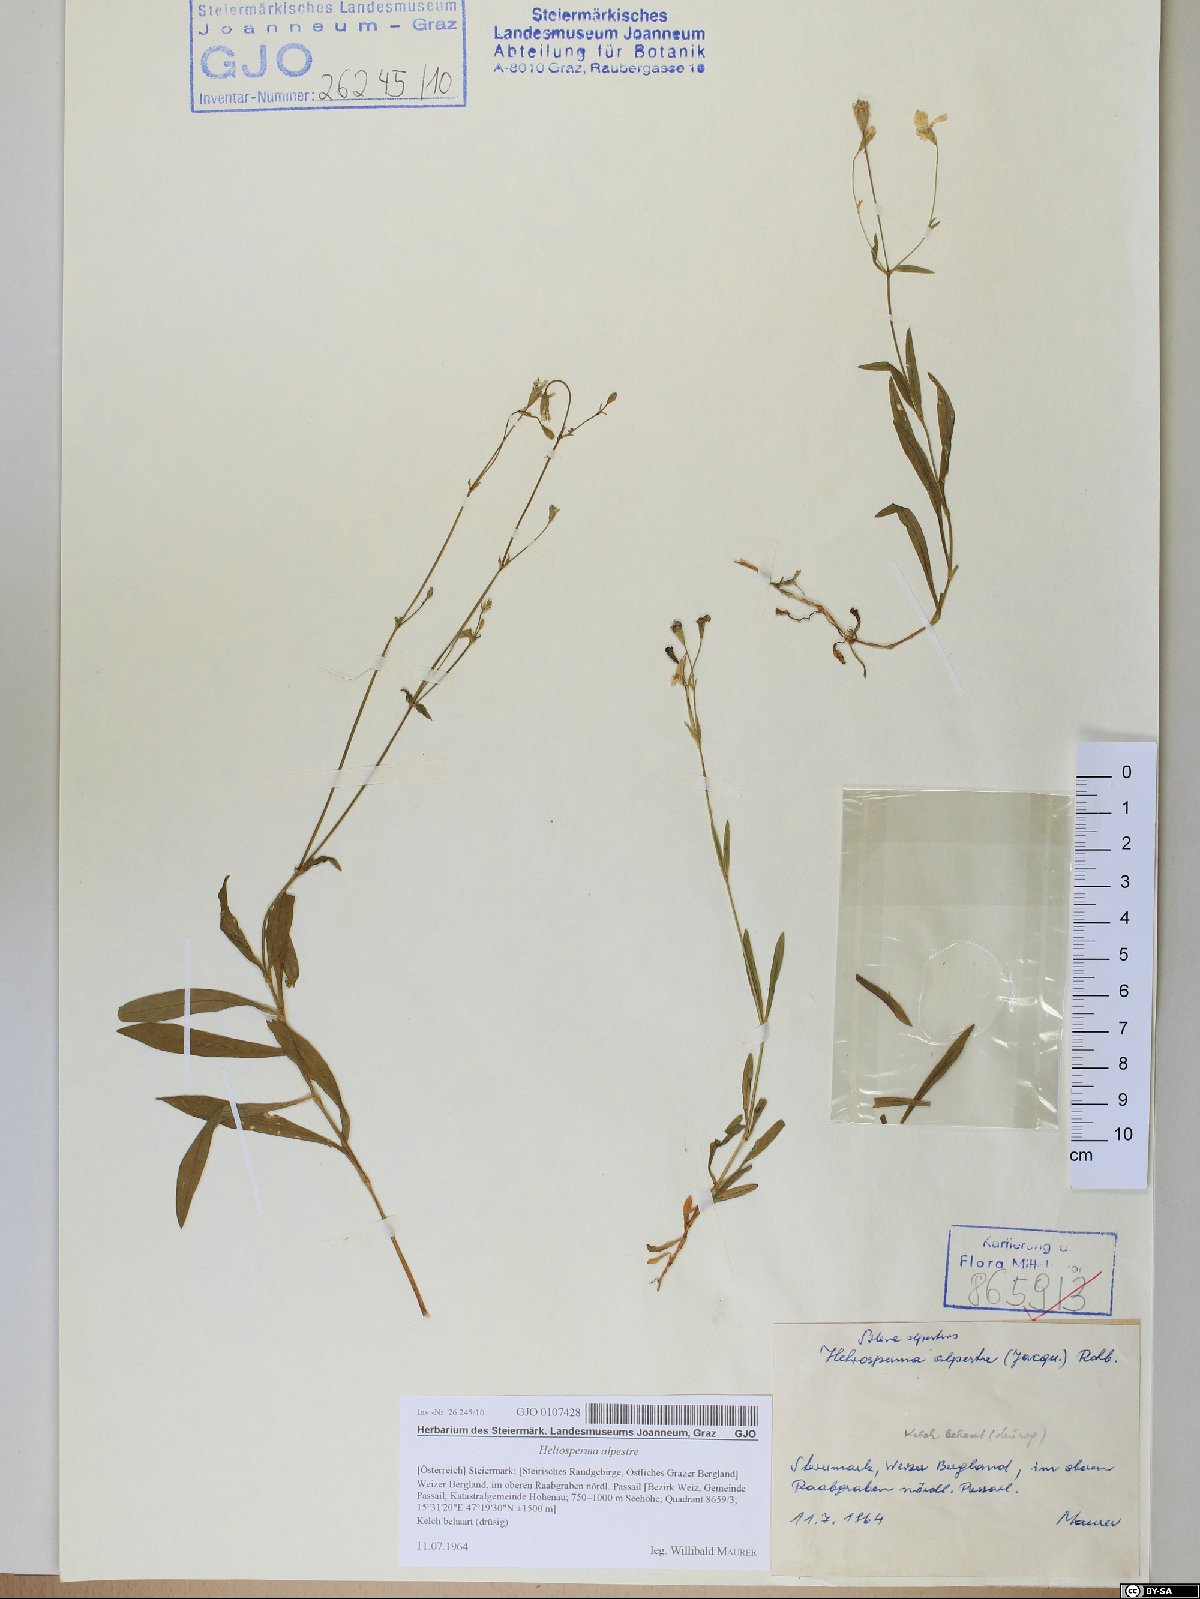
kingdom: Plantae
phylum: Tracheophyta
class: Magnoliopsida
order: Caryophyllales
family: Caryophyllaceae
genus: Heliosperma
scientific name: Heliosperma alpestre
